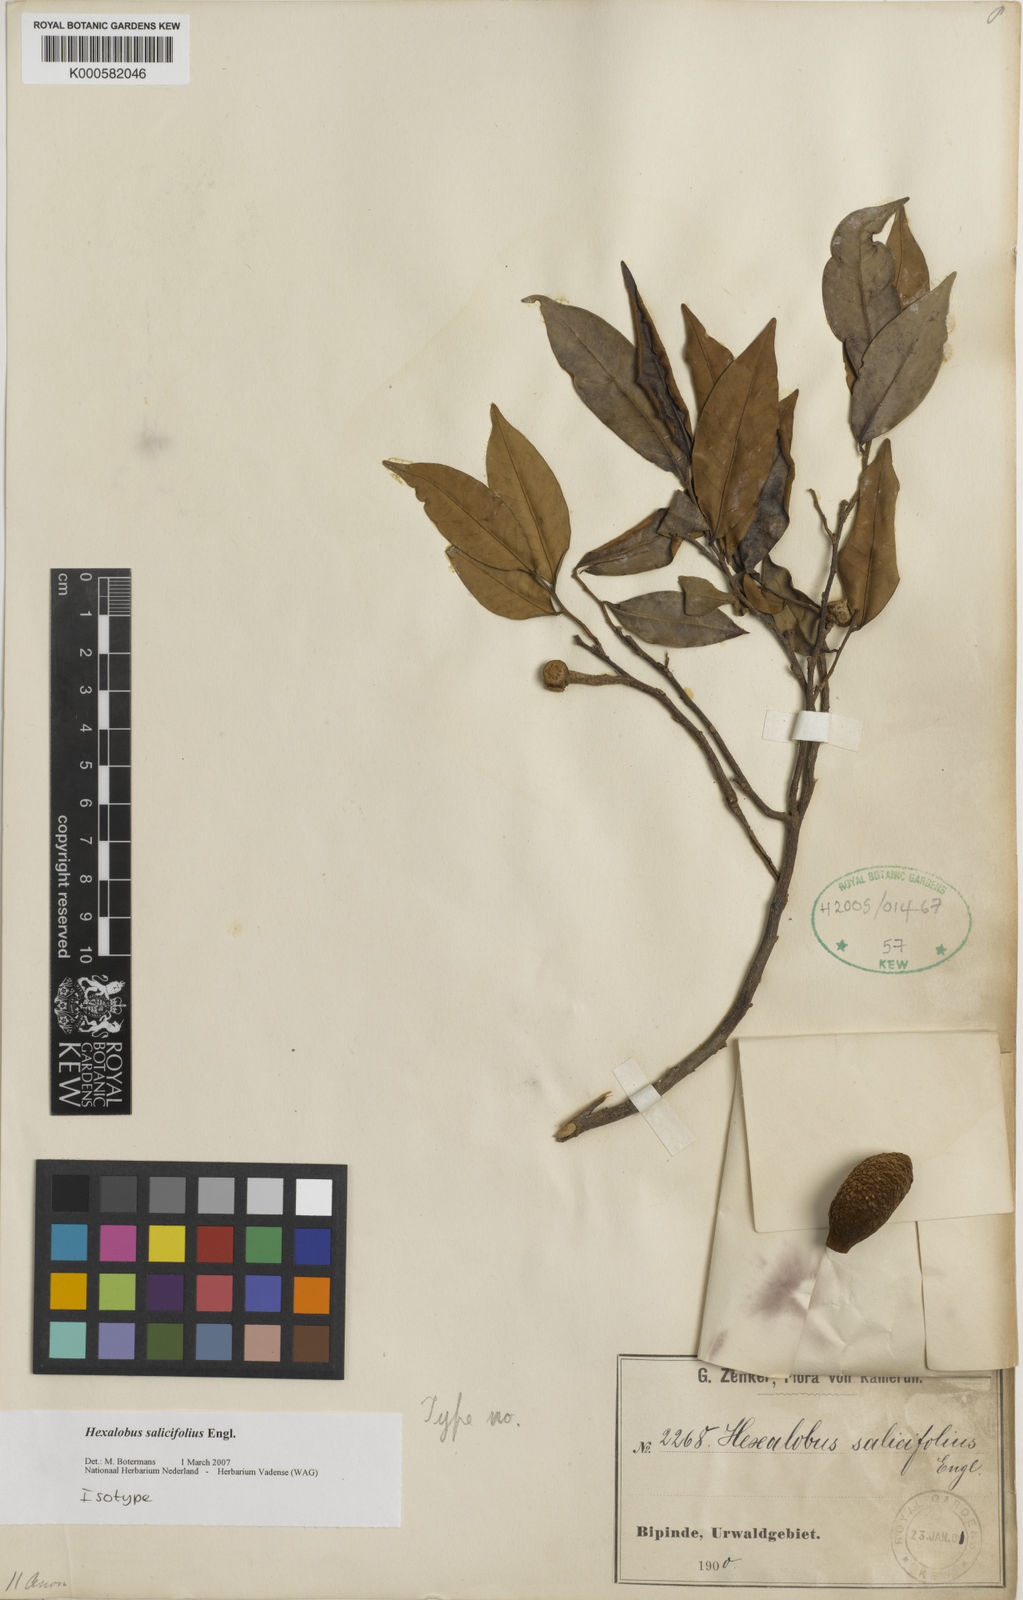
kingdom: Plantae
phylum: Tracheophyta
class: Magnoliopsida
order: Magnoliales
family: Annonaceae
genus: Hexalobus
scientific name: Hexalobus salicifolius
